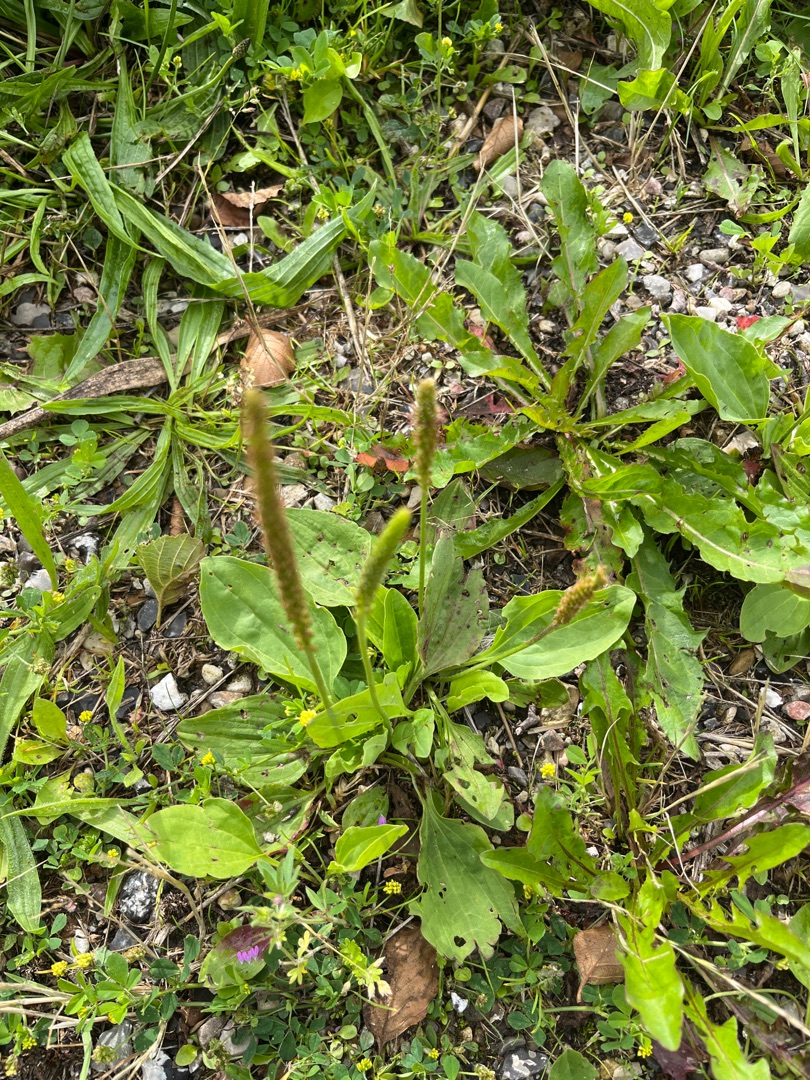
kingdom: Plantae
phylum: Tracheophyta
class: Magnoliopsida
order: Lamiales
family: Plantaginaceae
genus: Plantago
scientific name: Plantago major
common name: Glat vejbred
